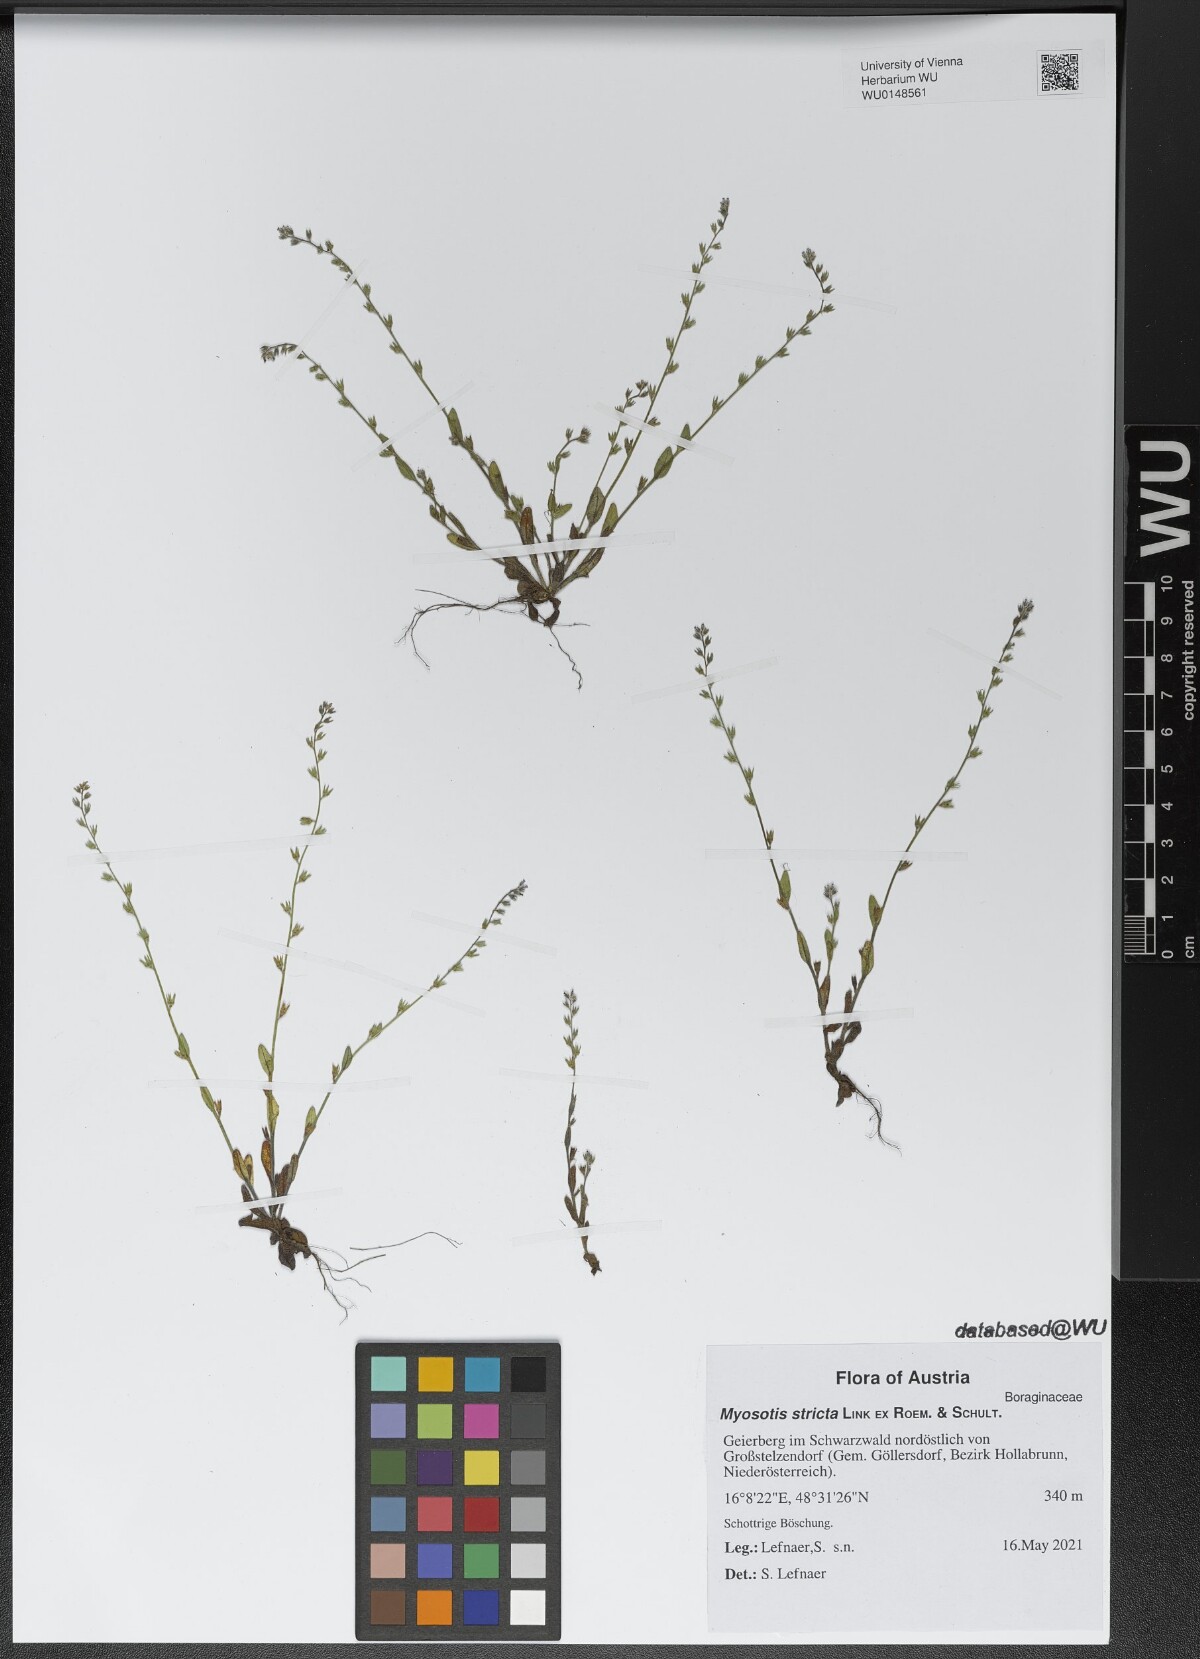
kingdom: Plantae
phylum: Tracheophyta
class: Magnoliopsida
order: Boraginales
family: Boraginaceae
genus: Myosotis
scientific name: Myosotis stricta
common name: Strict forget-me-not
